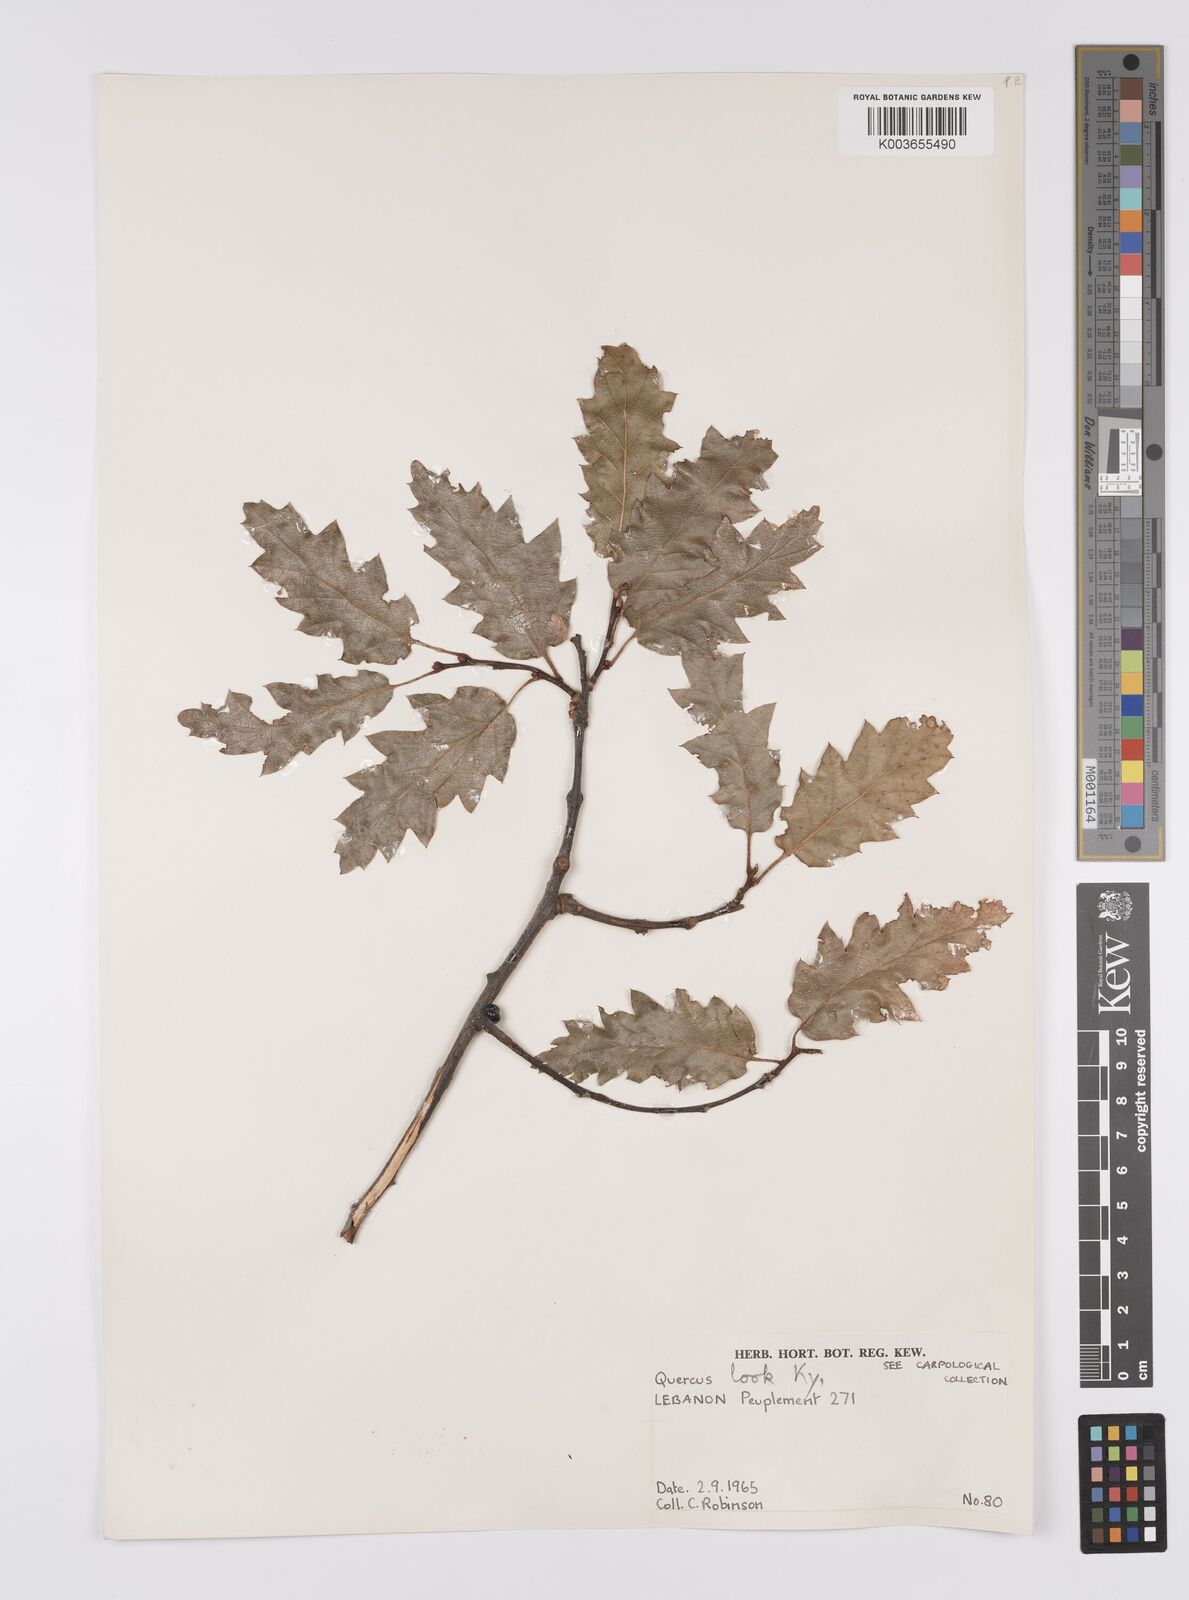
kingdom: Plantae
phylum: Tracheophyta
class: Magnoliopsida
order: Fagales
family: Fagaceae
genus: Quercus
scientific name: Quercus look
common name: Look oak
